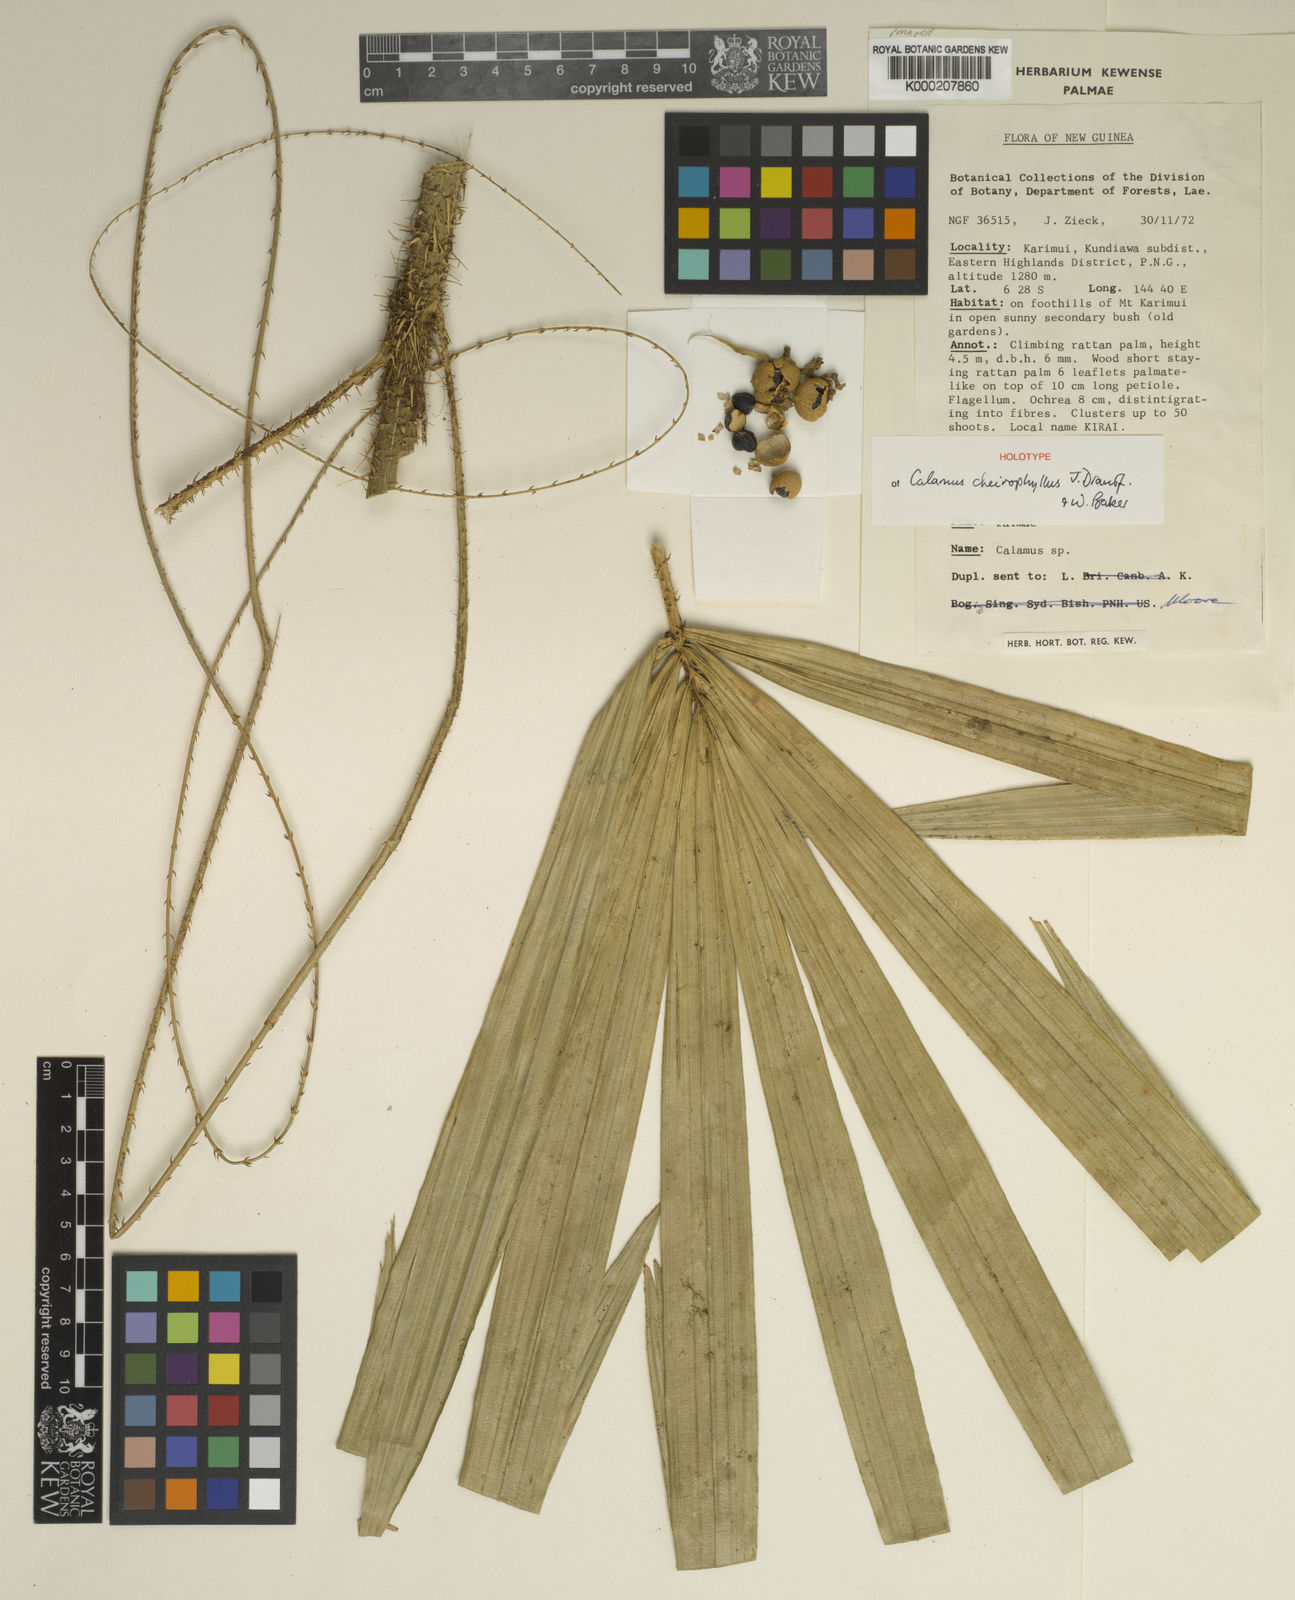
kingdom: Plantae
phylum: Tracheophyta
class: Liliopsida
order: Arecales
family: Arecaceae
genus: Calamus
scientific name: Calamus cheirophyllus
